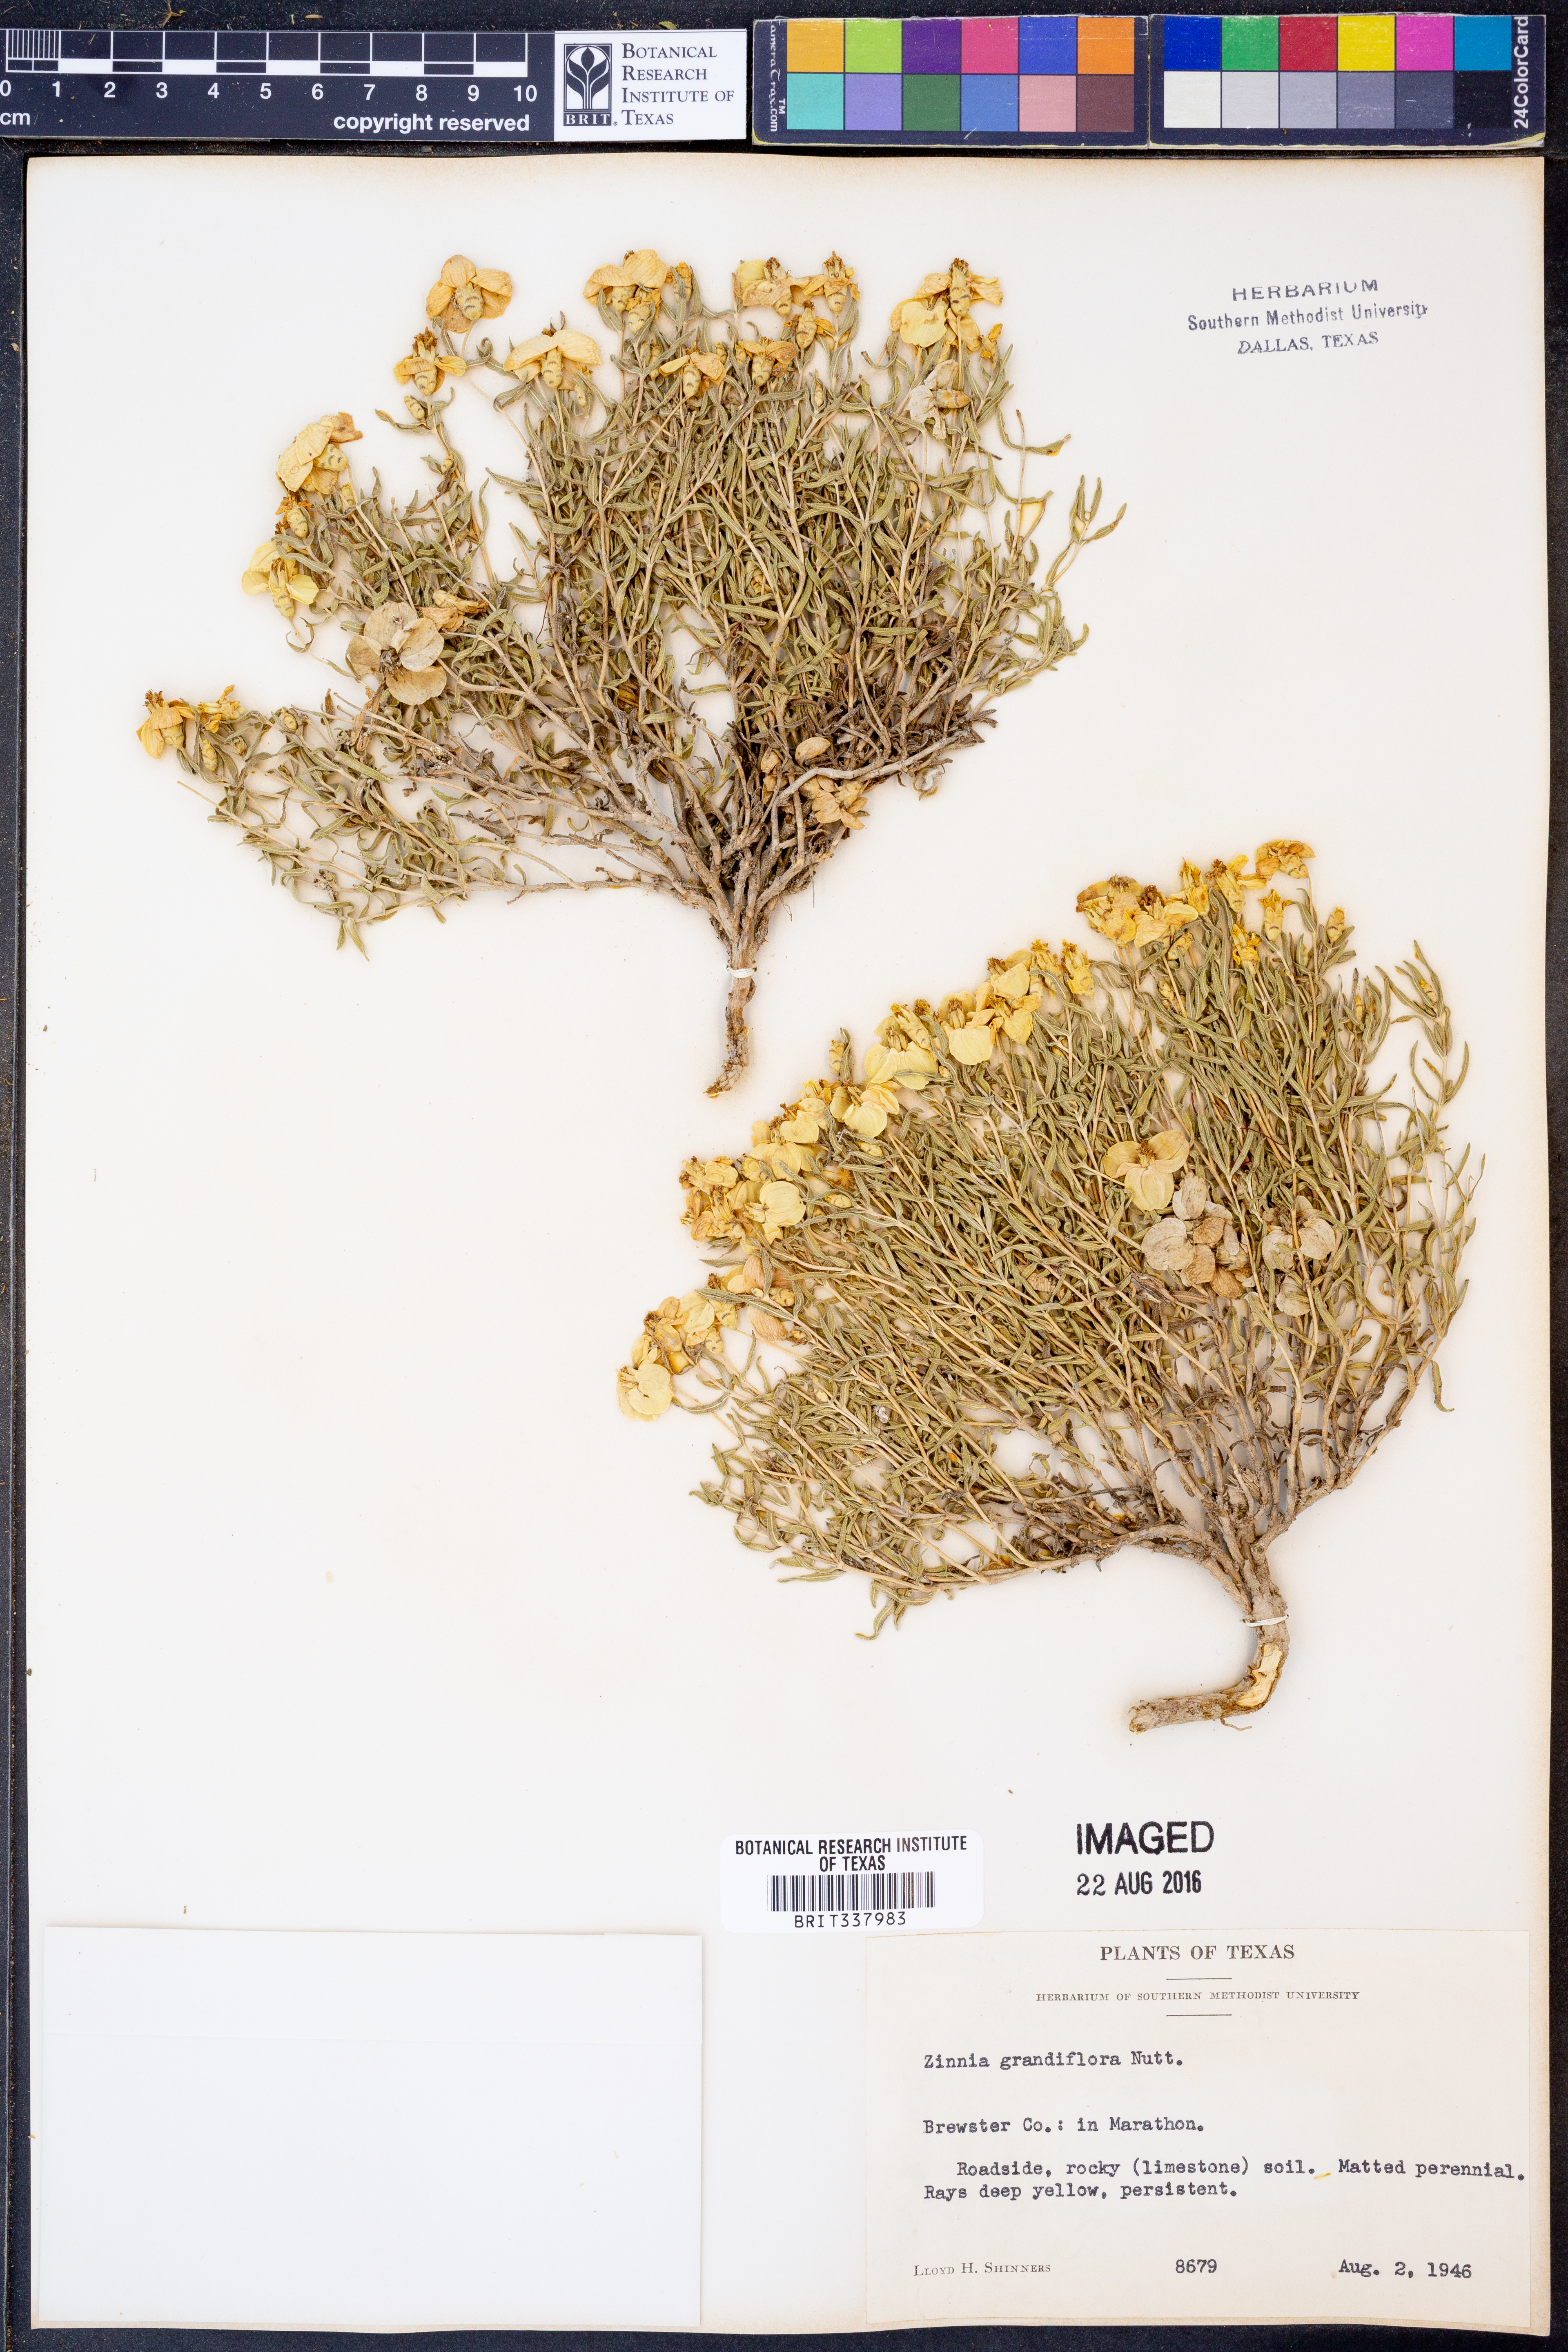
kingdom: Plantae
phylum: Tracheophyta
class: Magnoliopsida
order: Asterales
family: Asteraceae
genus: Zinnia
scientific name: Zinnia grandiflora
